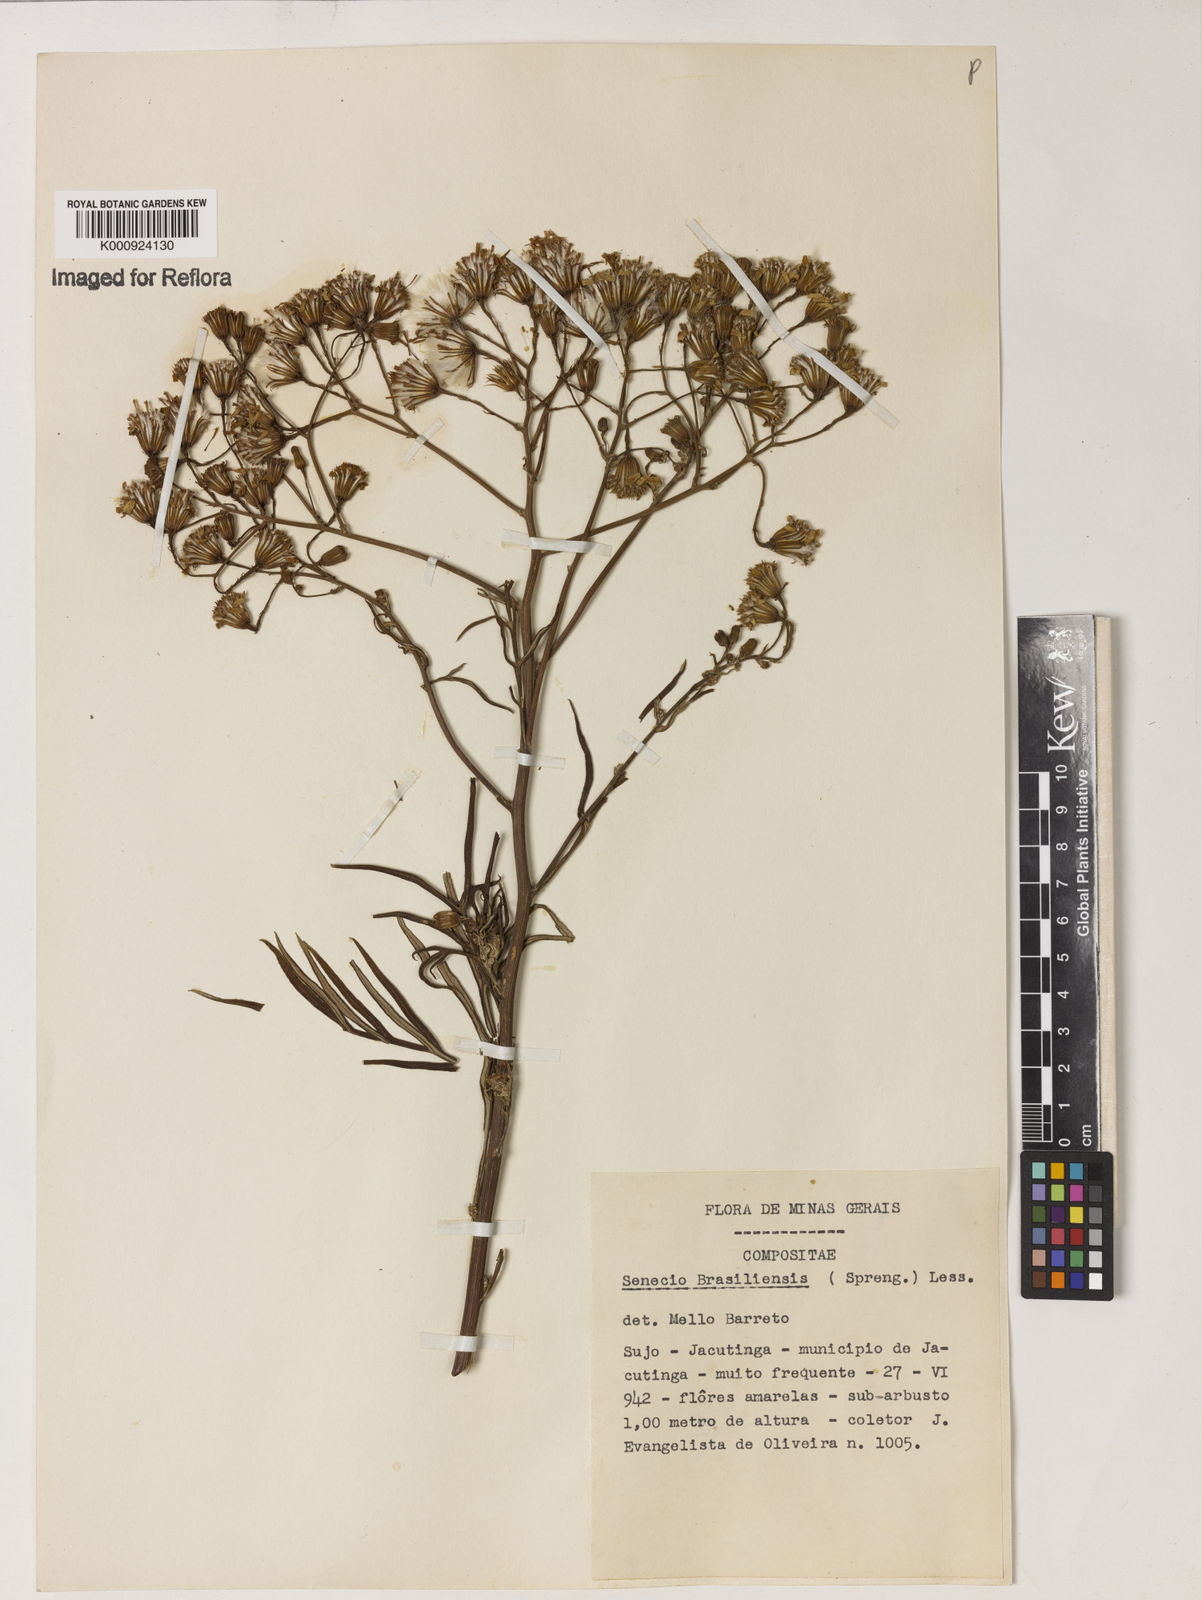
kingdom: Plantae
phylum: Tracheophyta
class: Magnoliopsida
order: Asterales
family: Asteraceae
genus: Senecio
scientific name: Senecio brasiliensis
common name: Hemp-leaf ragwort
